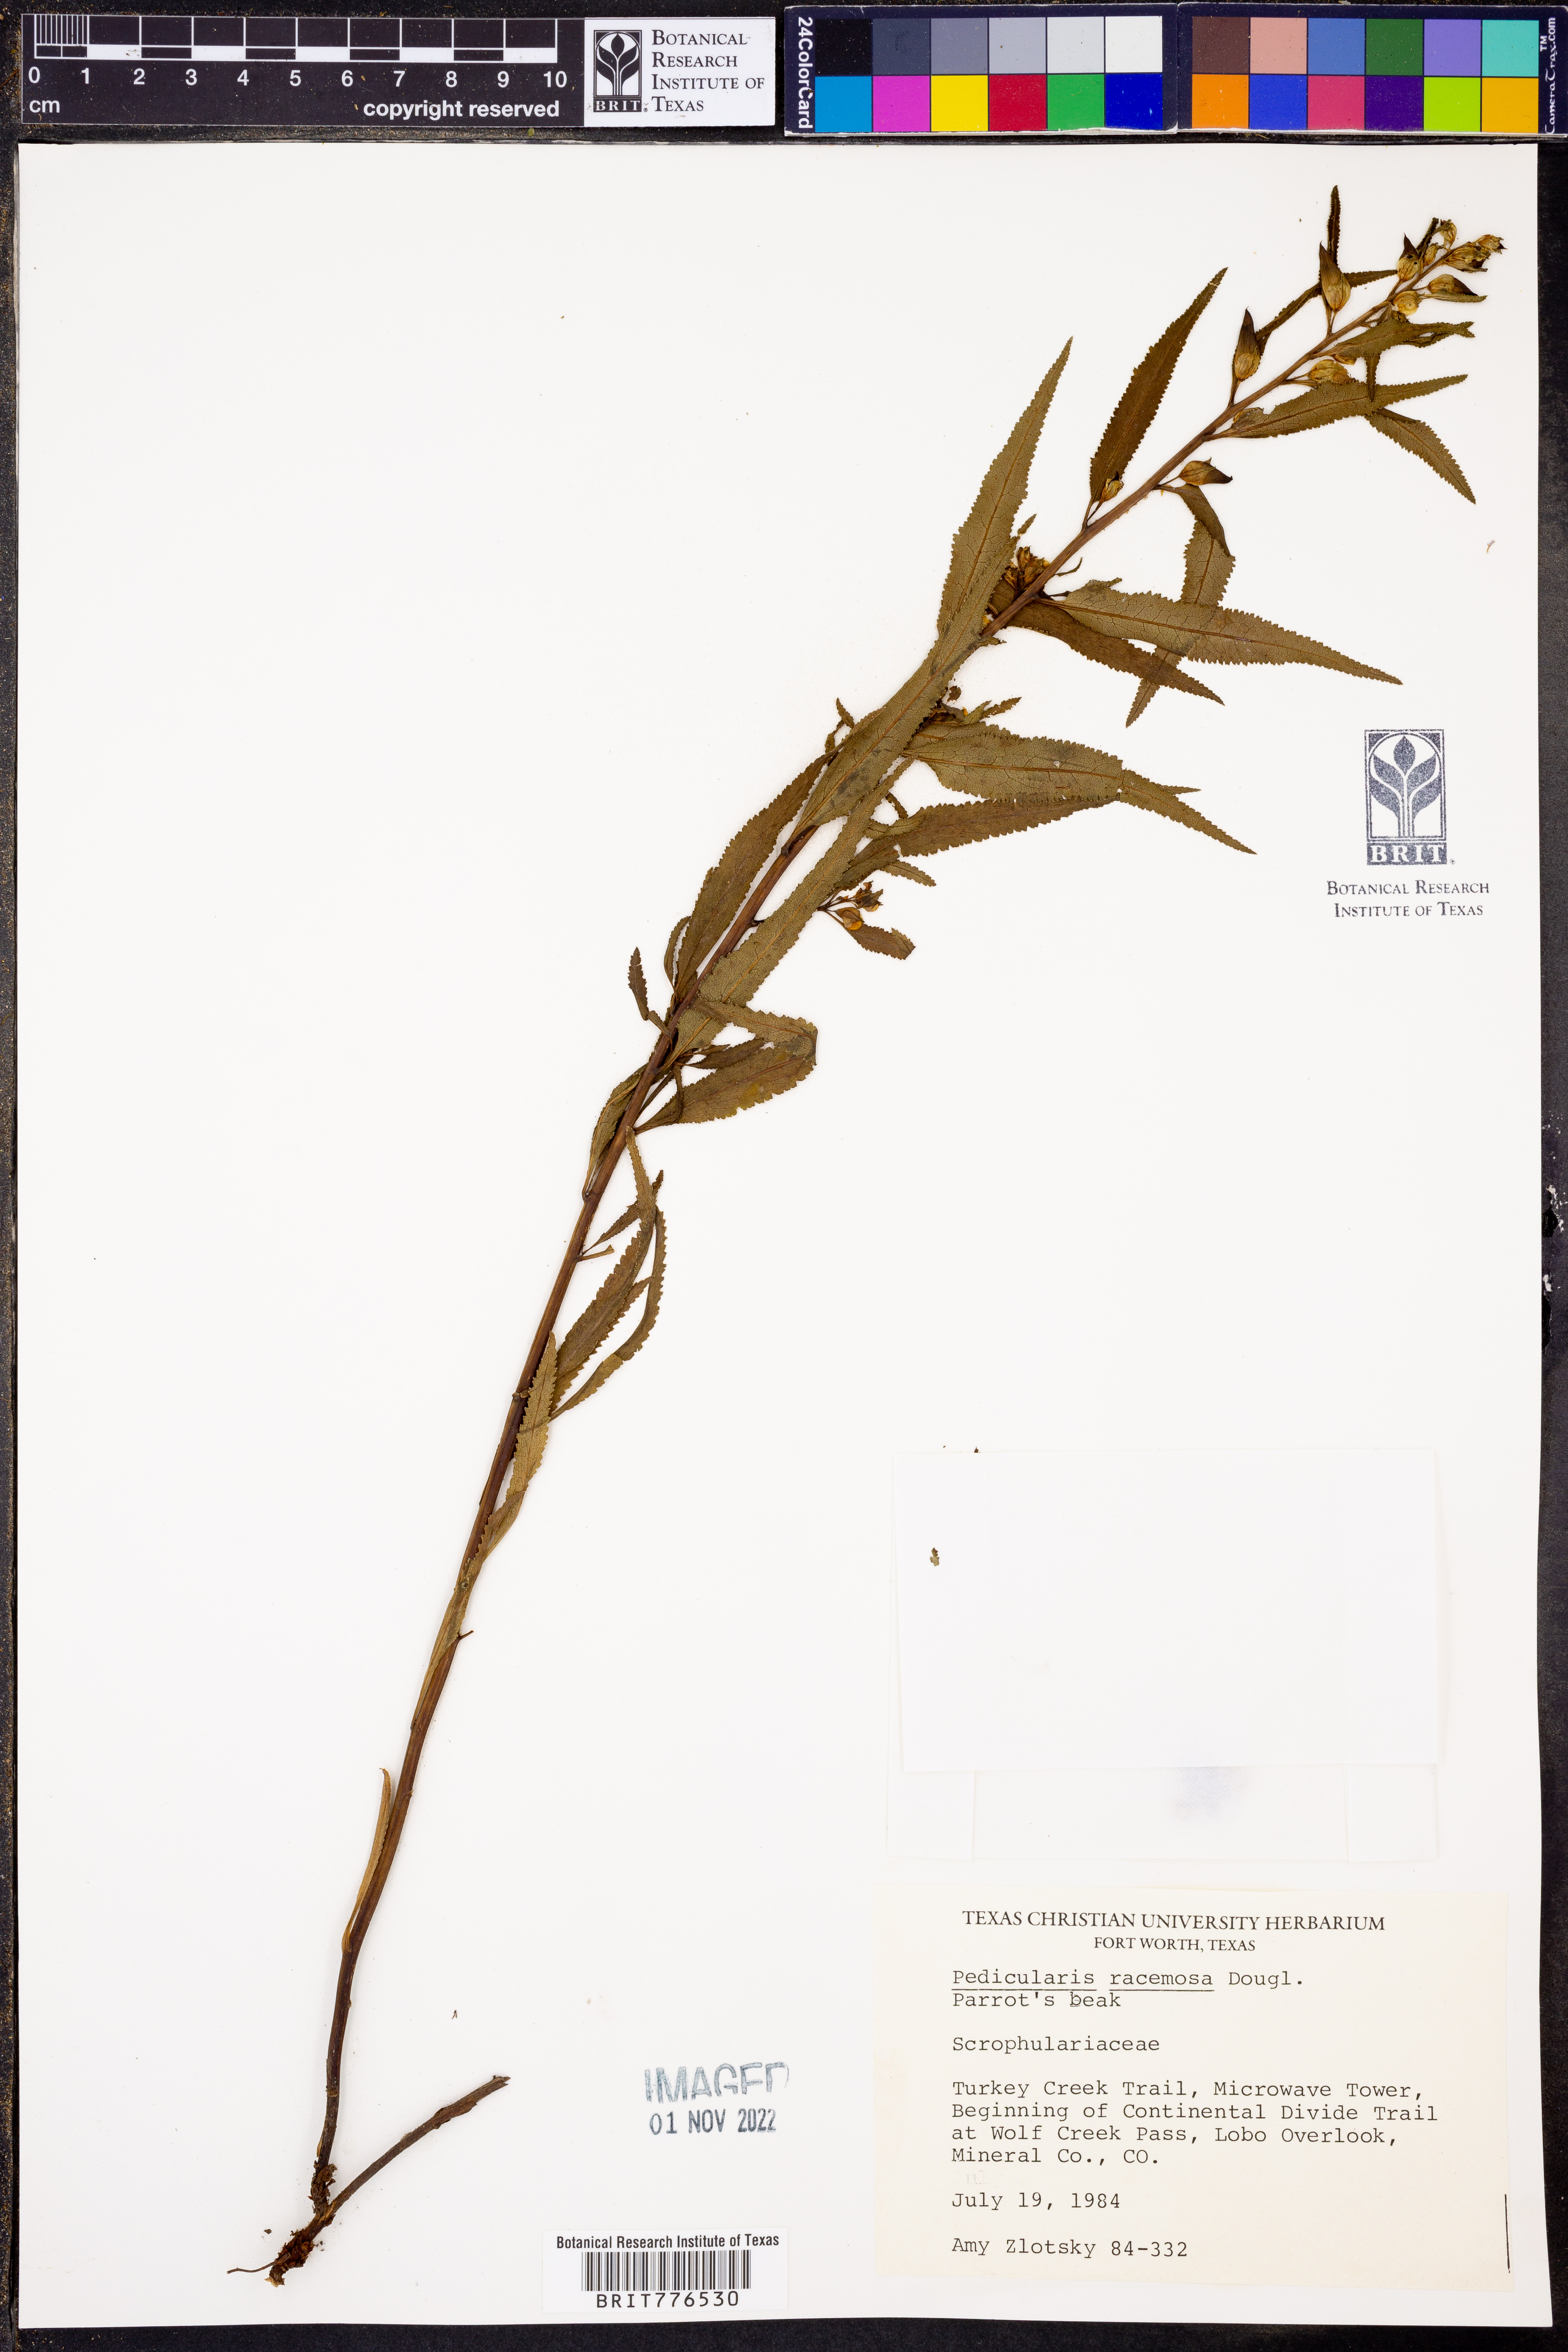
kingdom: Plantae
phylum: Tracheophyta
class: Magnoliopsida
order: Lamiales
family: Orobanchaceae
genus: Pedicularis
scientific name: Pedicularis racemosa
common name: Leafy lousewort
